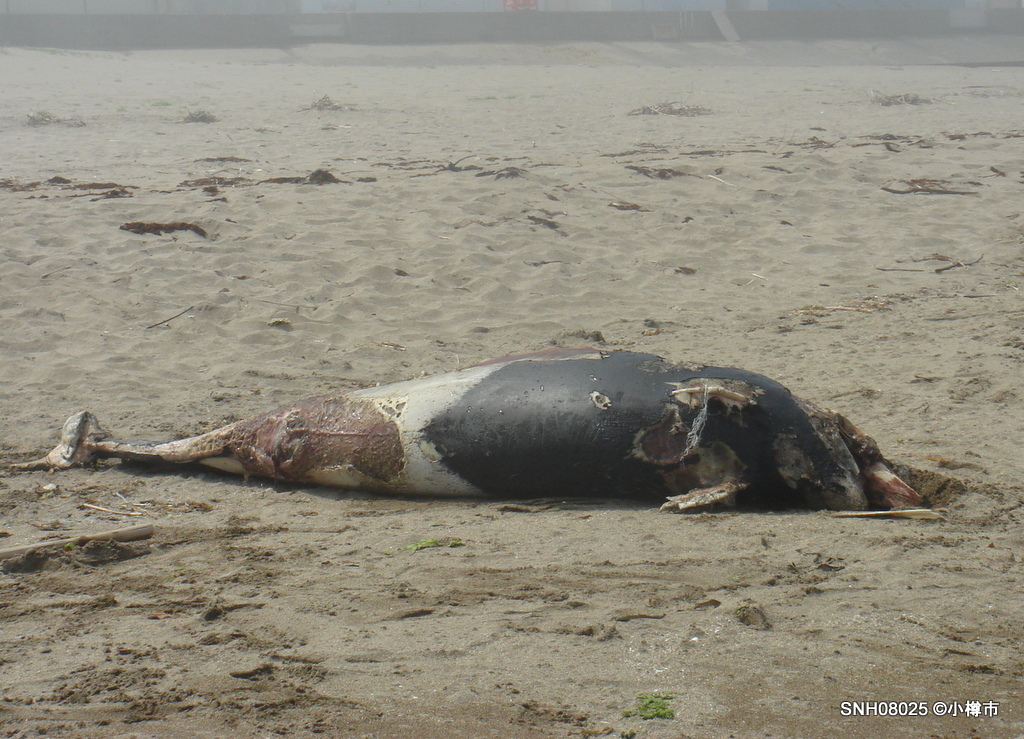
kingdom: Animalia
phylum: Chordata
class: Mammalia
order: Cetacea
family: Phocoenidae
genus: Phocoenoides
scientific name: Phocoenoides dalli
